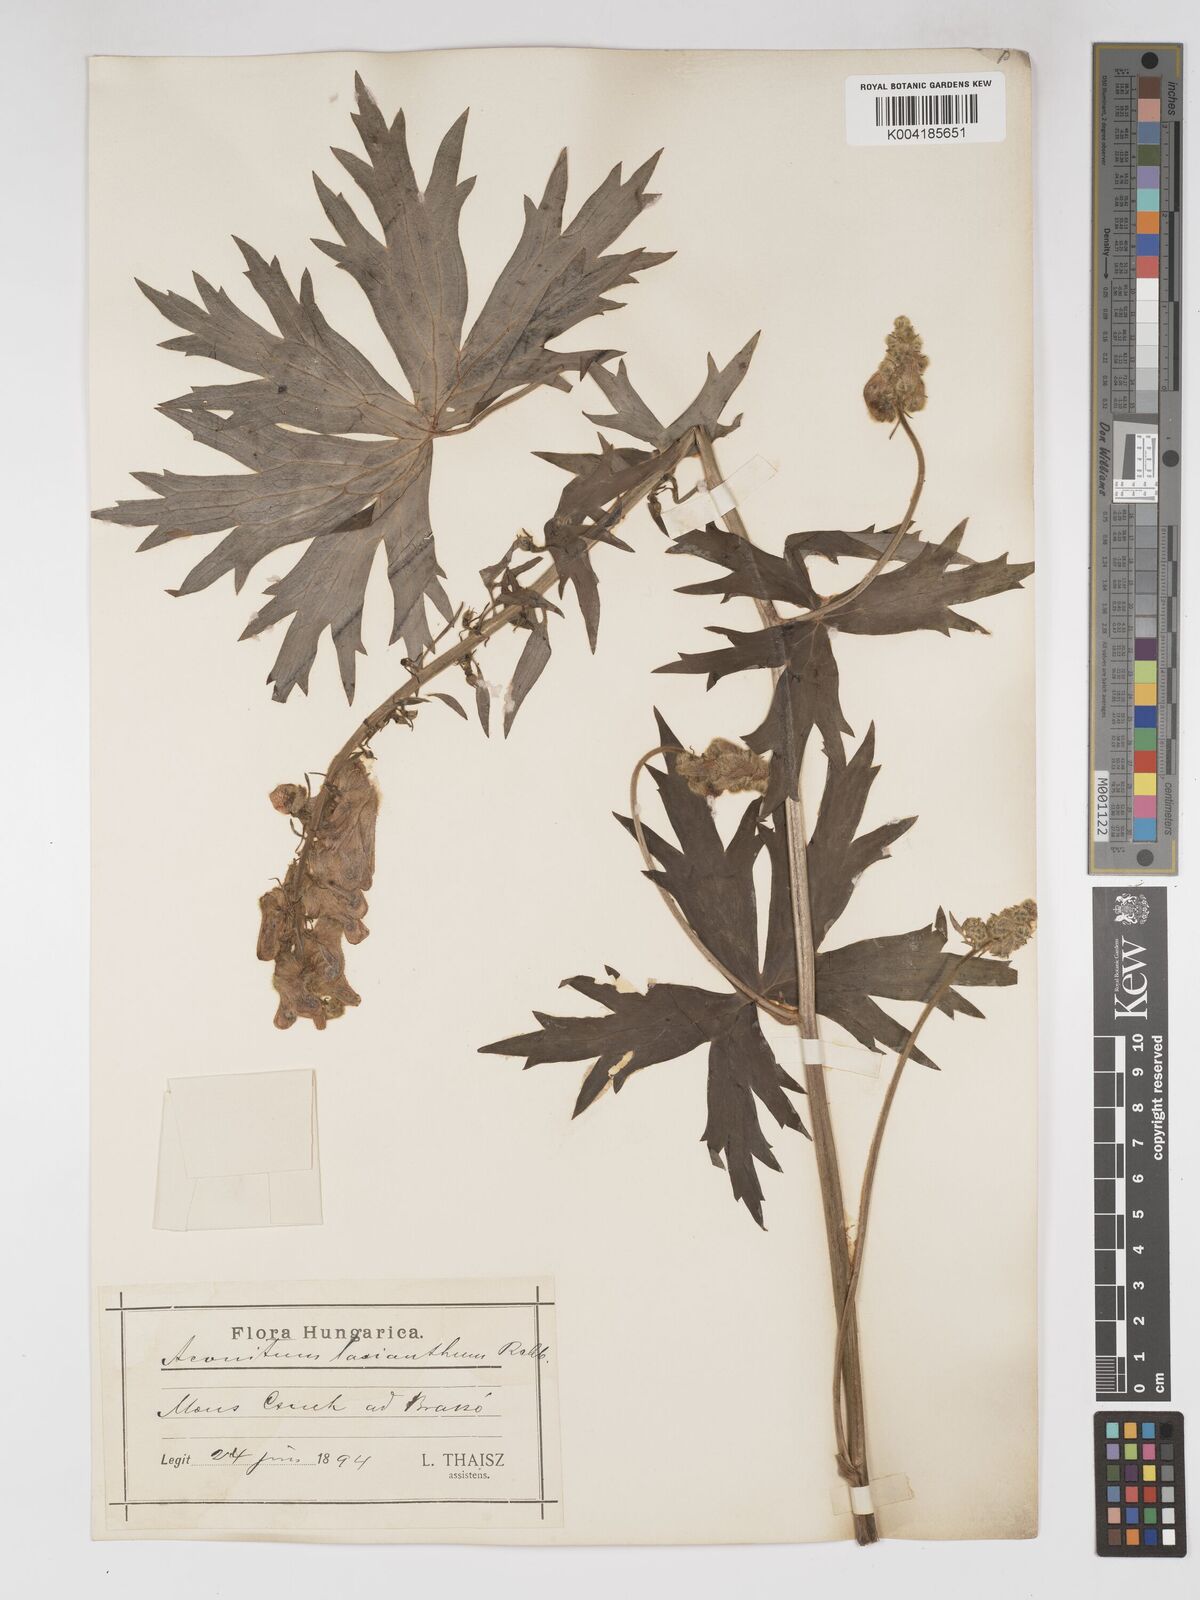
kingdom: Plantae
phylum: Tracheophyta
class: Magnoliopsida
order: Ranunculales
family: Ranunculaceae
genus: Aconitum
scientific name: Aconitum lycoctonum
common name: Wolf's-bane
